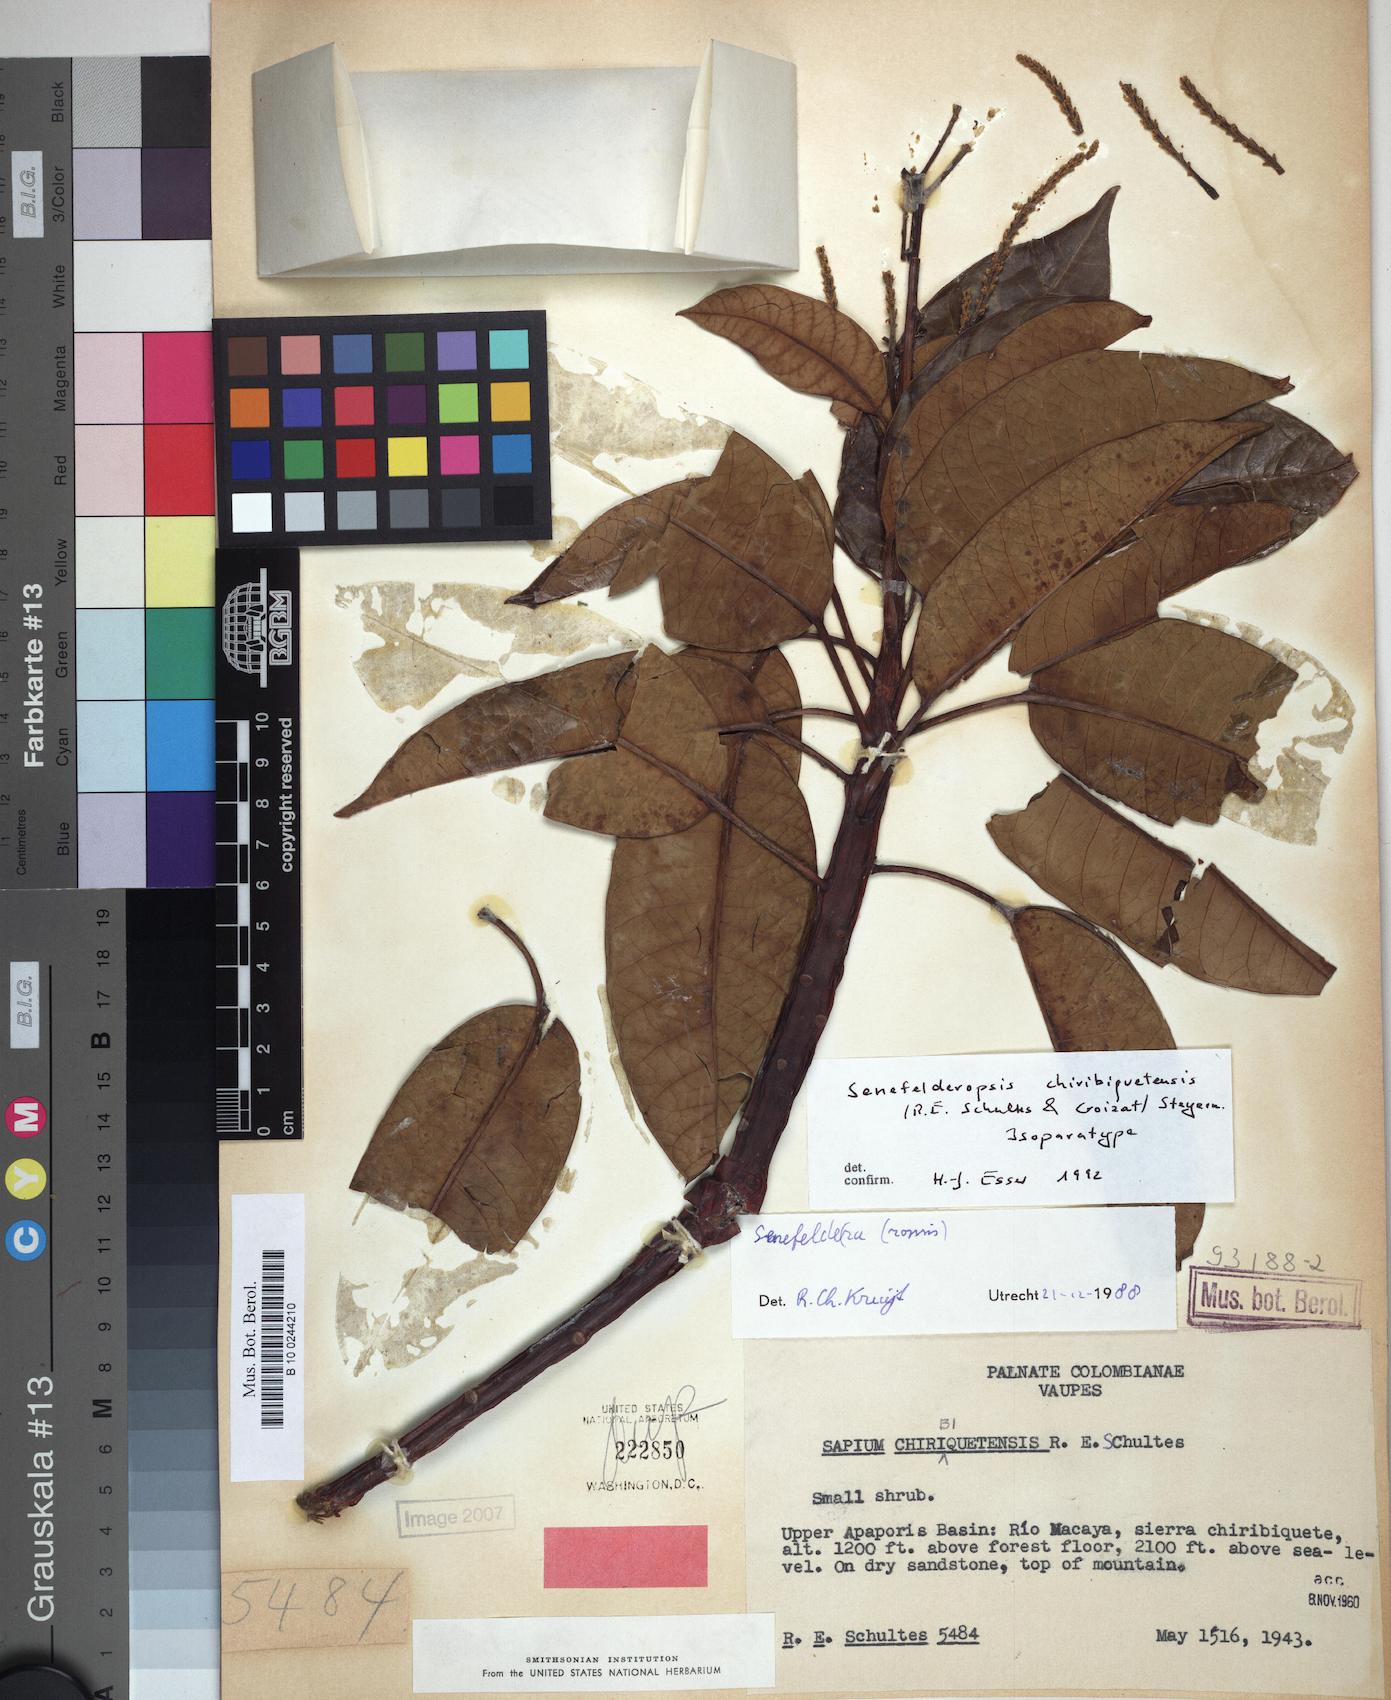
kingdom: Plantae
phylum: Tracheophyta
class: Magnoliopsida
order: Malpighiales
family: Euphorbiaceae
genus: Senefelderopsis
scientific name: Senefelderopsis chiribiquetensis
